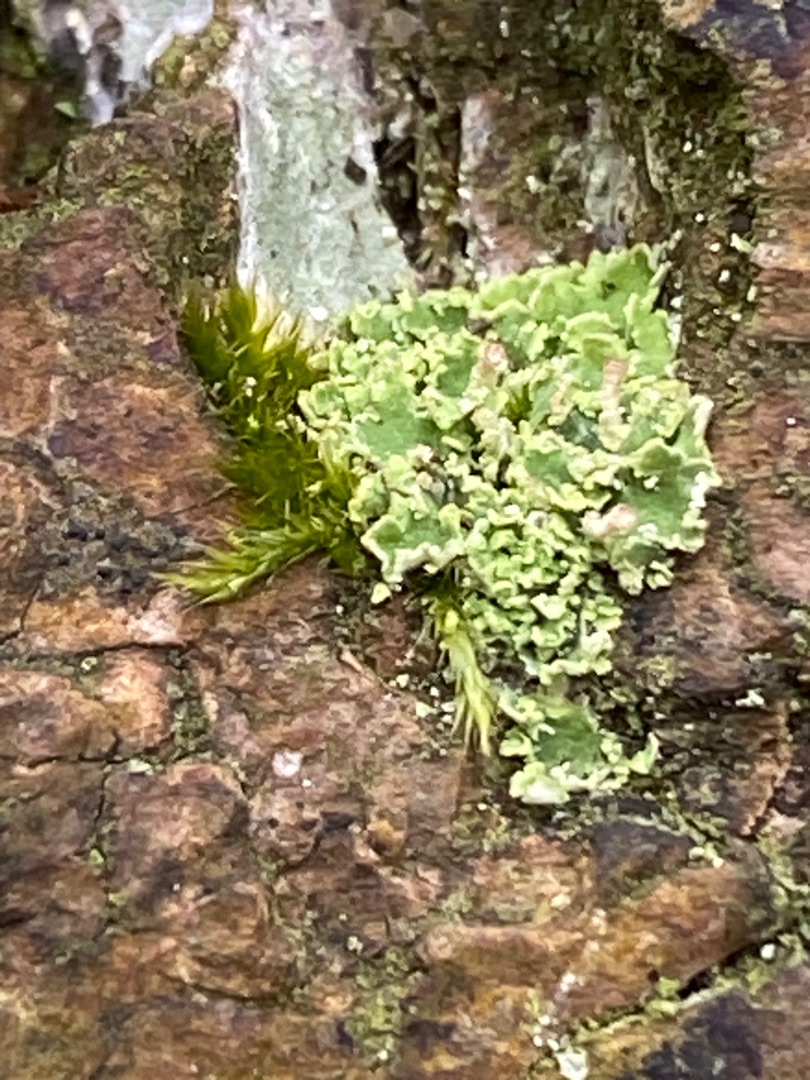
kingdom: Fungi
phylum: Ascomycota
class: Lecanoromycetes
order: Lecanorales
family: Cladoniaceae
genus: Cladonia
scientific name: Cladonia
